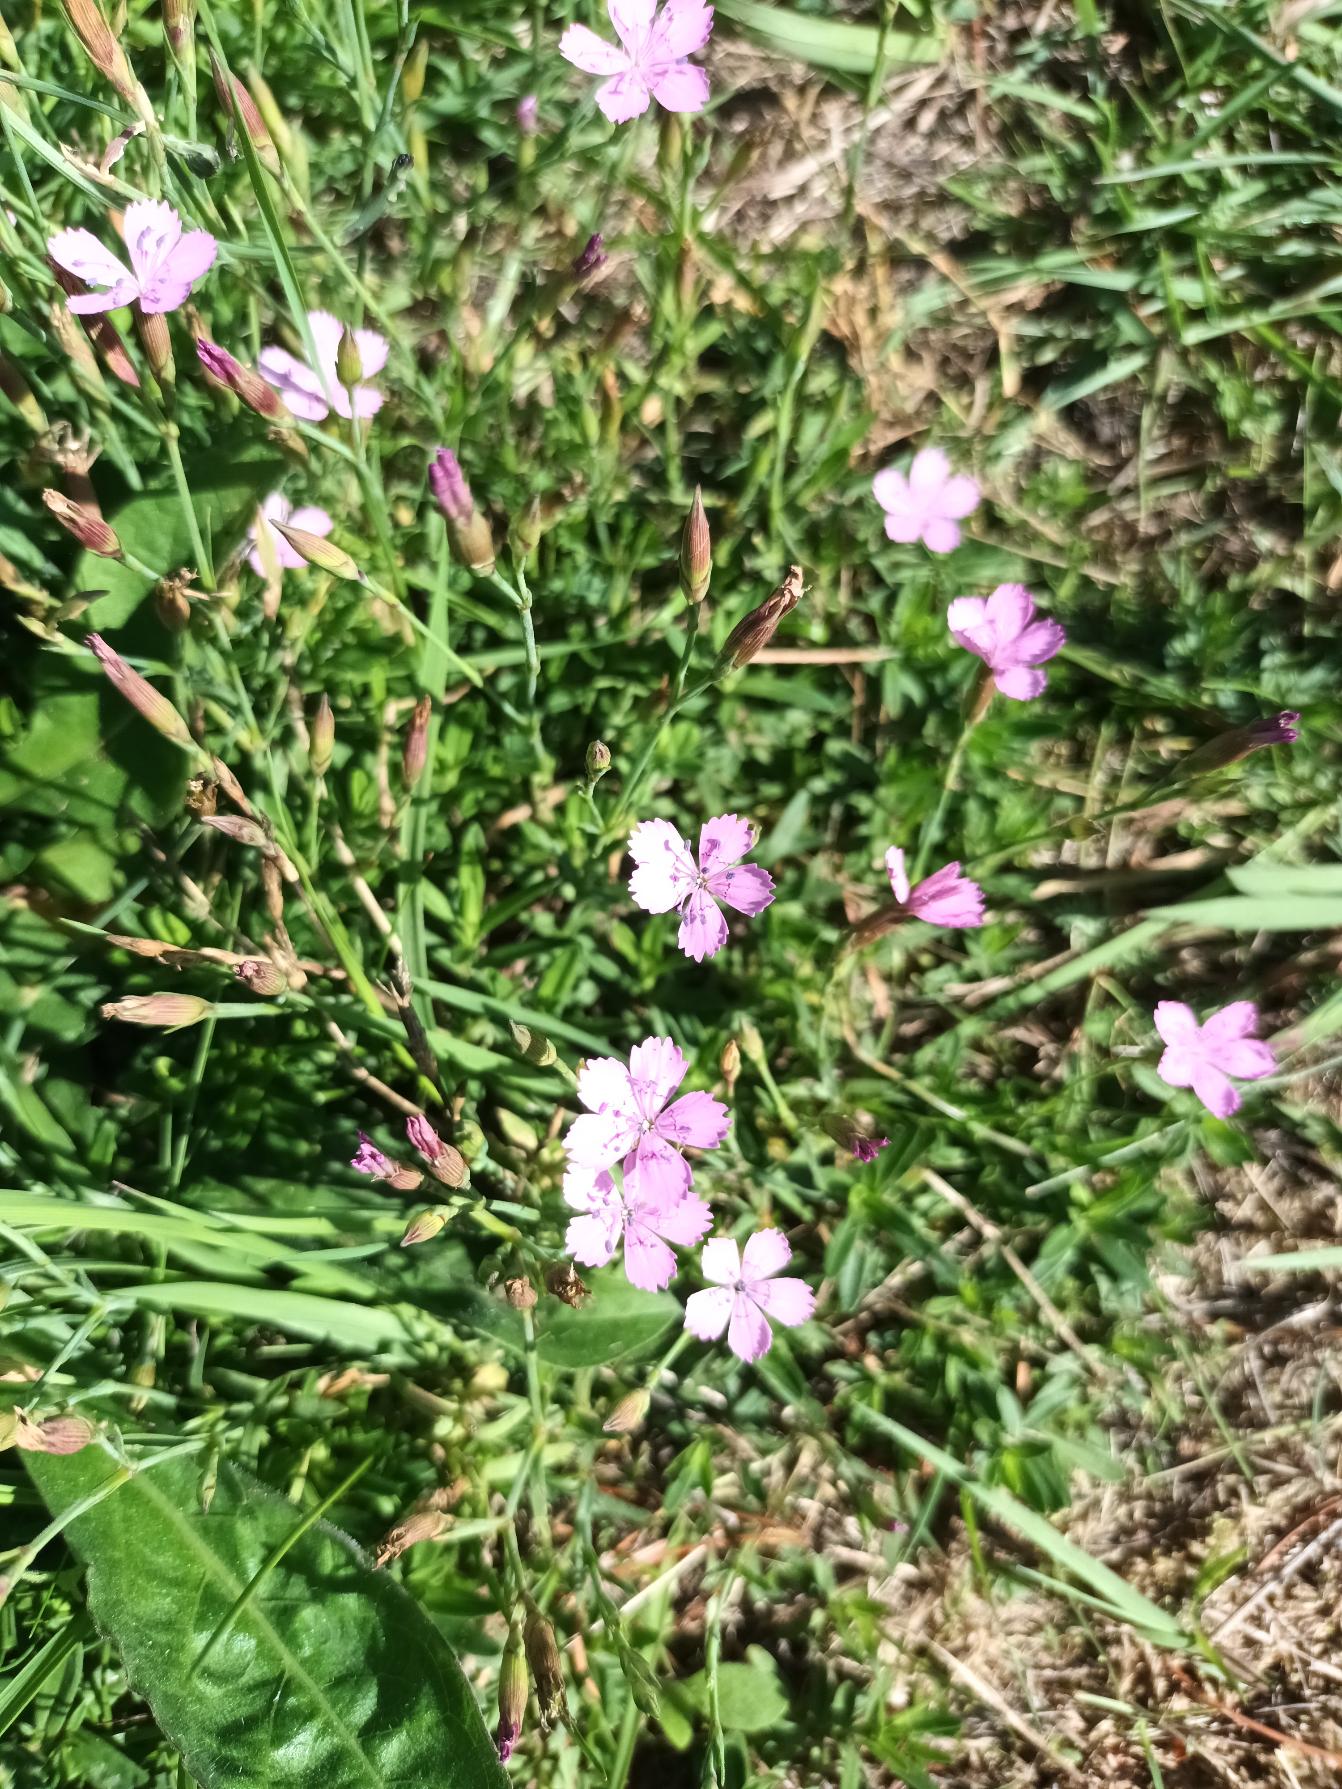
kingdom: Plantae
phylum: Tracheophyta
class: Magnoliopsida
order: Caryophyllales
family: Caryophyllaceae
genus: Dianthus
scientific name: Dianthus deltoides
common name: Bakke-nellike
